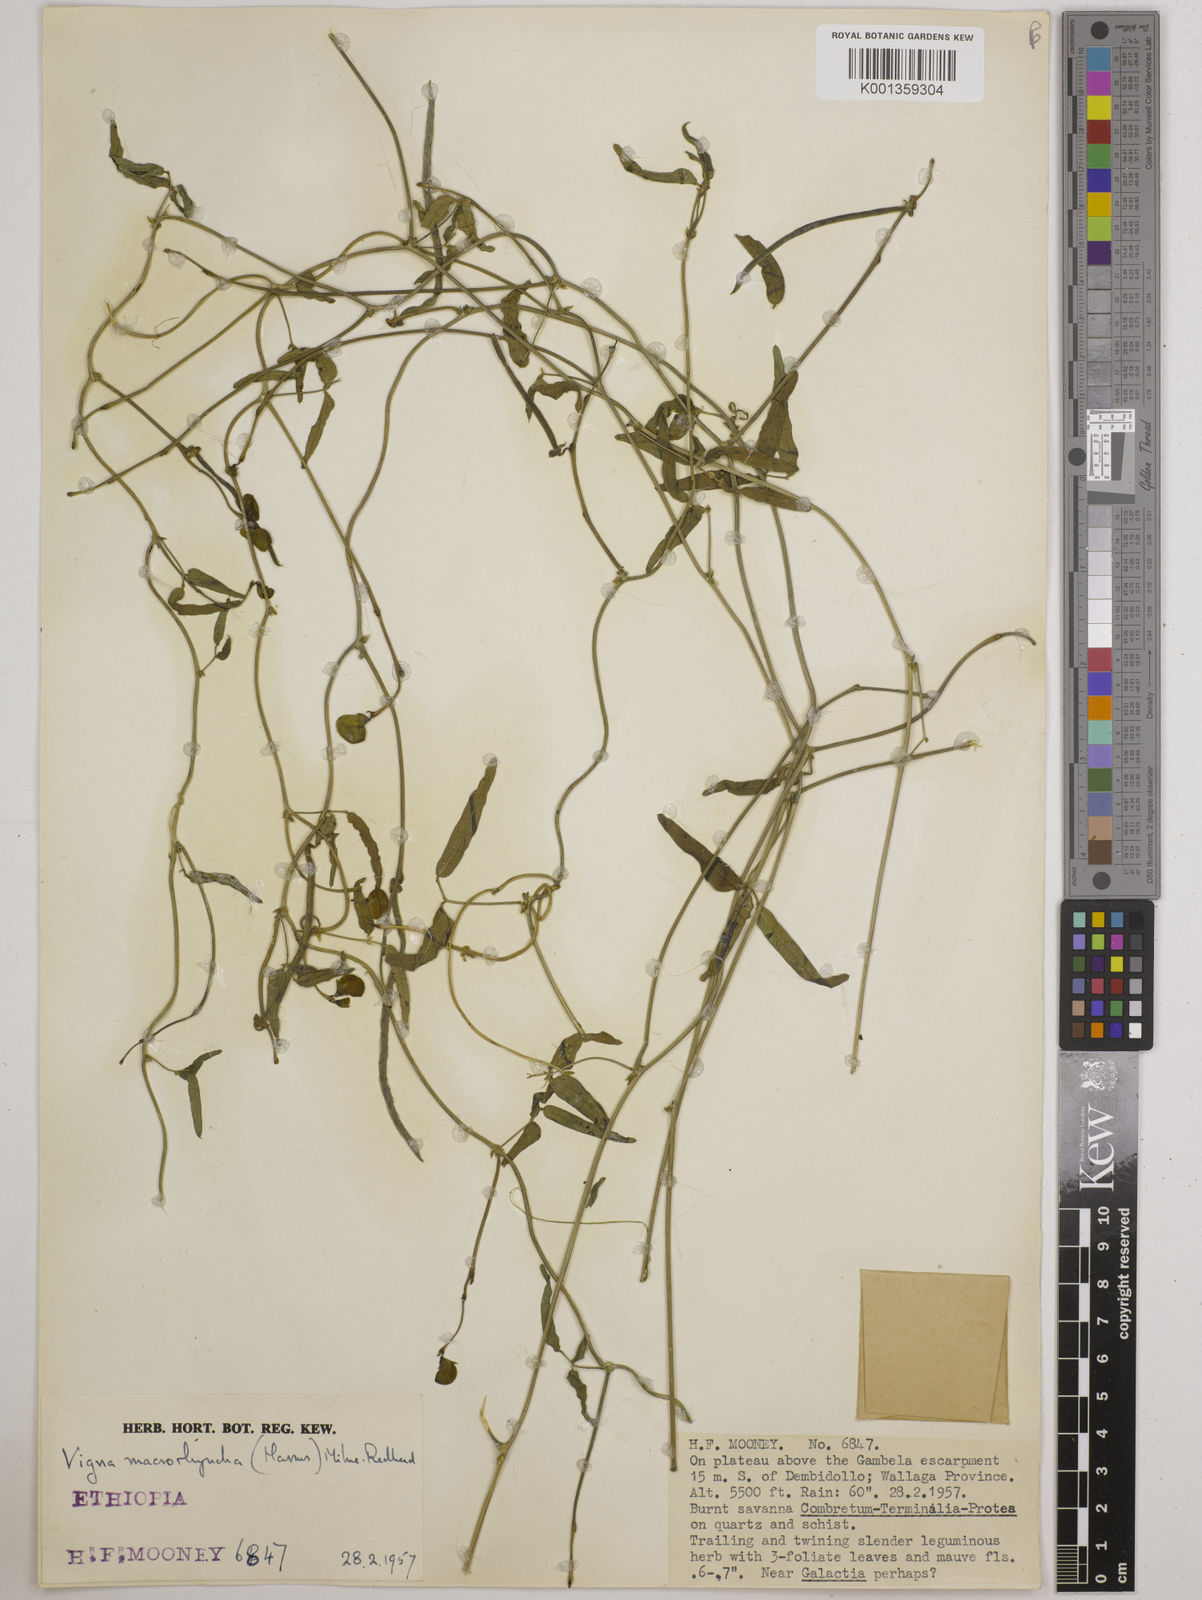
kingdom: Plantae
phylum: Tracheophyta
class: Magnoliopsida
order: Fabales
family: Fabaceae
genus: Wajira
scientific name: Wajira grahamiana
